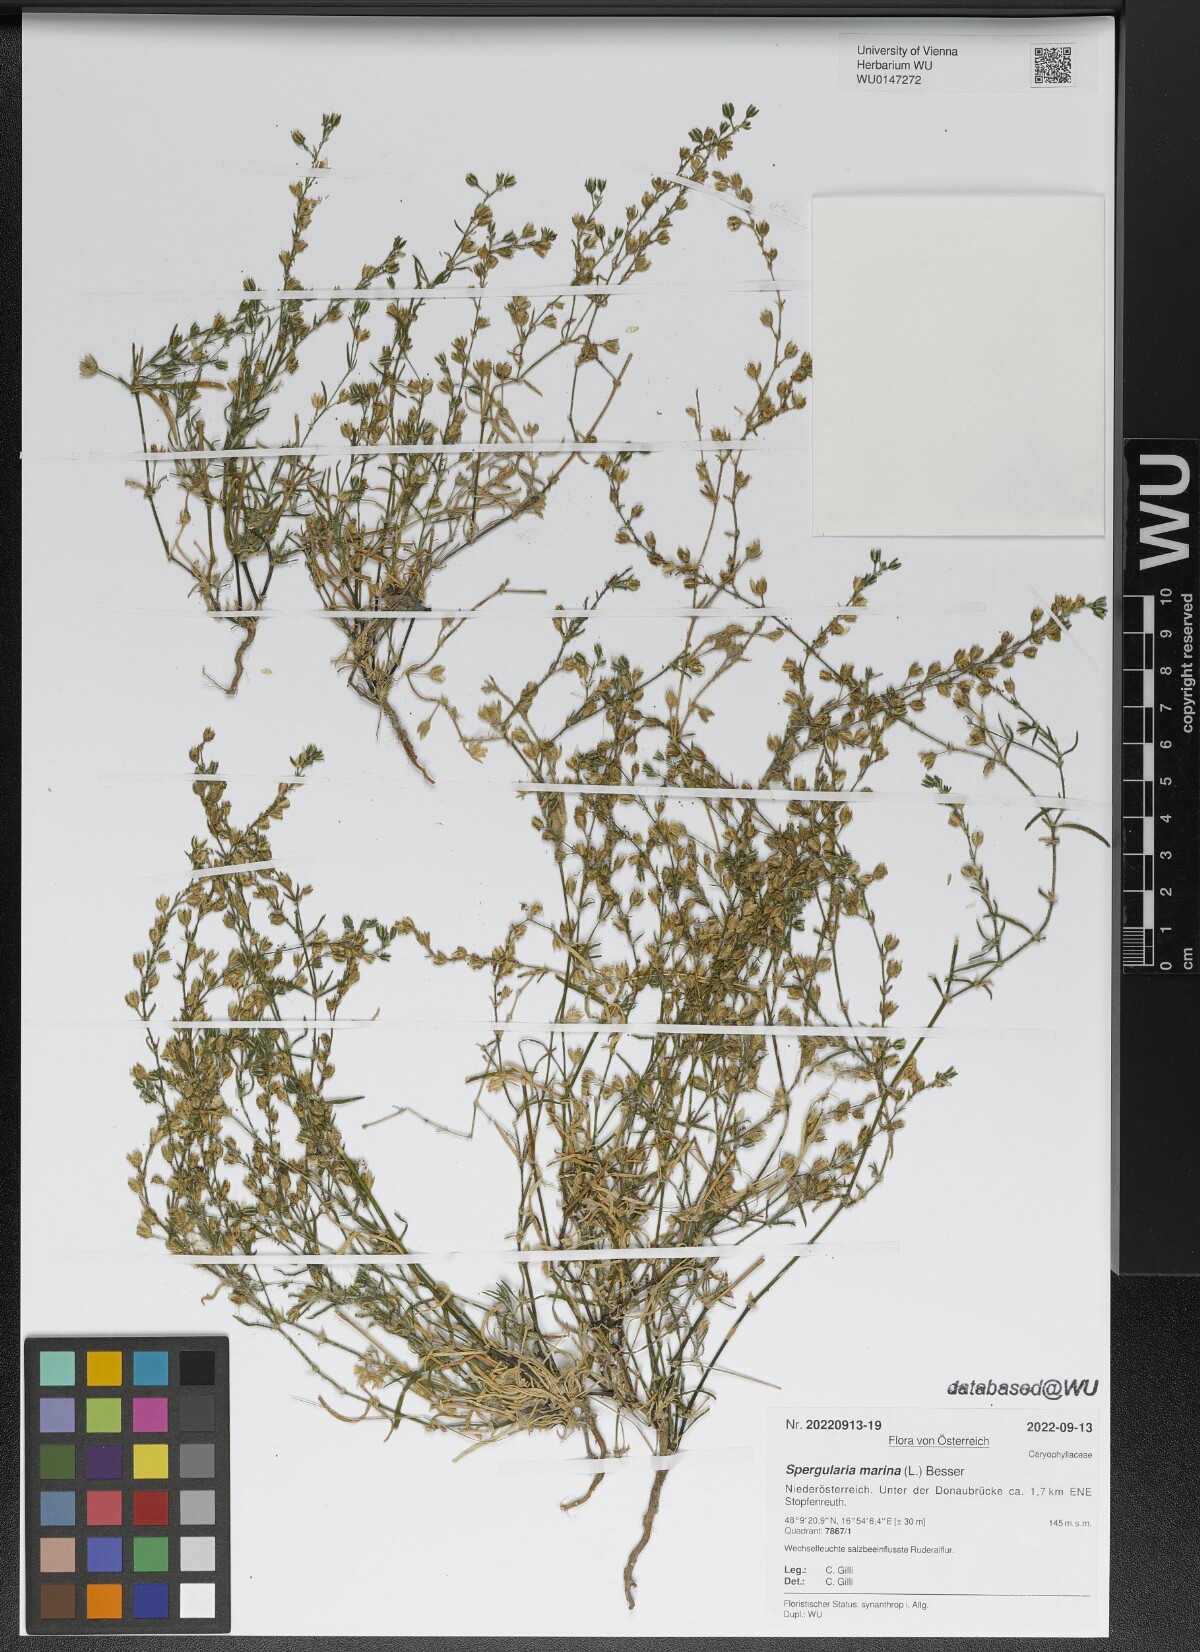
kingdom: Plantae
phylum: Tracheophyta
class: Magnoliopsida
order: Caryophyllales
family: Caryophyllaceae
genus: Spergularia
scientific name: Spergularia marina
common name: Lesser sea-spurrey
